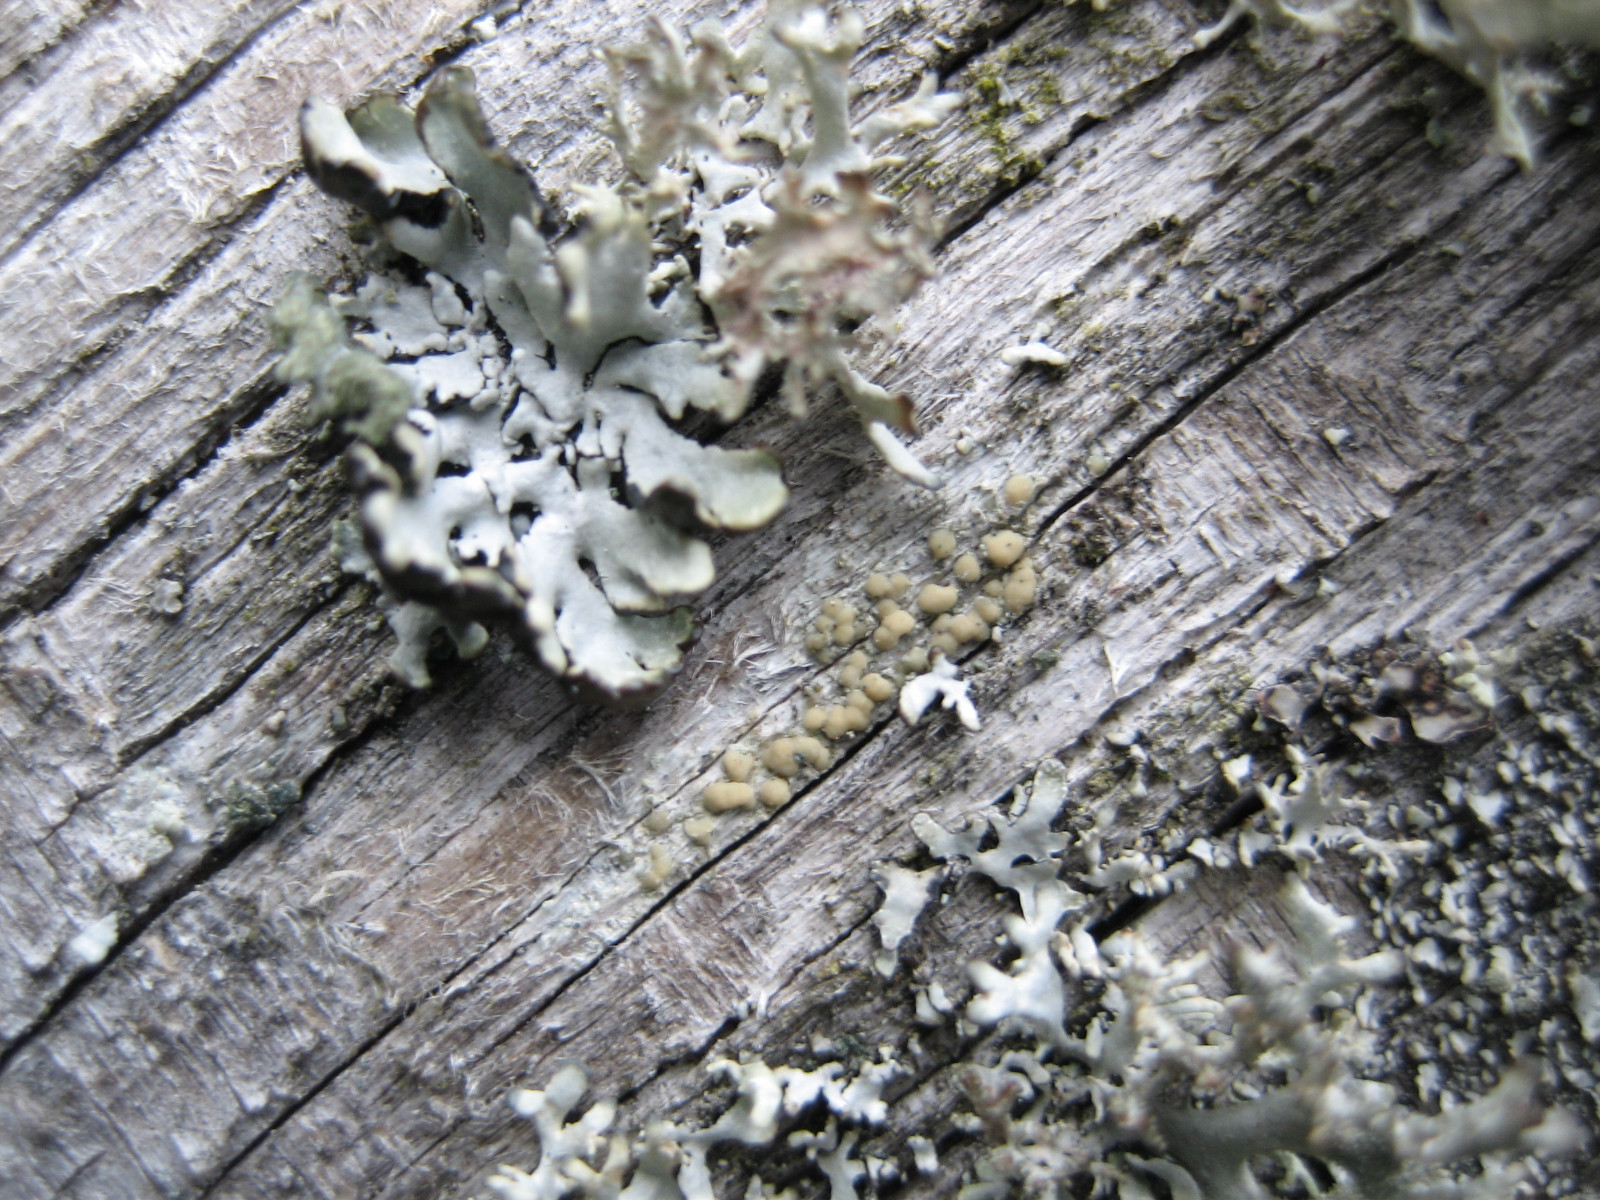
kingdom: Fungi
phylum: Ascomycota
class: Lecanoromycetes
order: Lecanorales
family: Lecanoraceae
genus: Lecanora
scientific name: Lecanora symmicta
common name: kvist-kantskivelav
